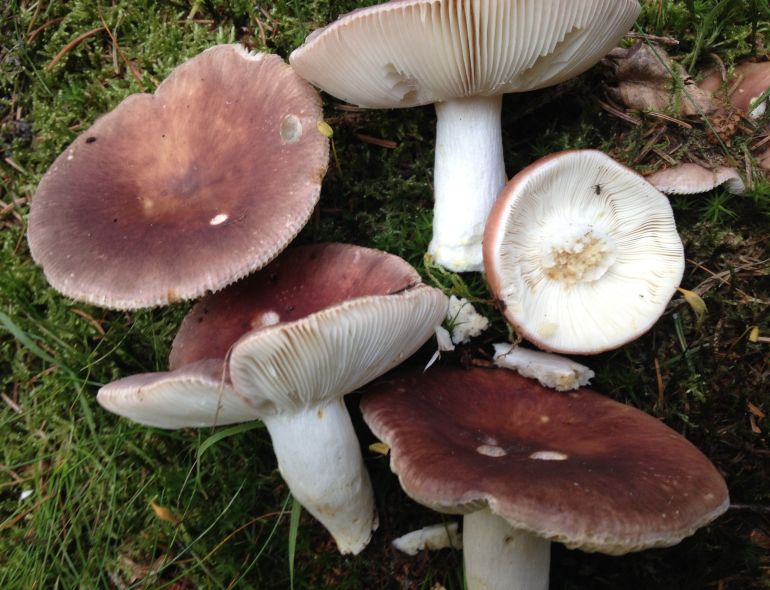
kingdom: Fungi
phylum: Basidiomycota
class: Agaricomycetes
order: Russulales
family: Russulaceae
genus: Russula
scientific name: Russula vesca
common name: spiselig skørhat
